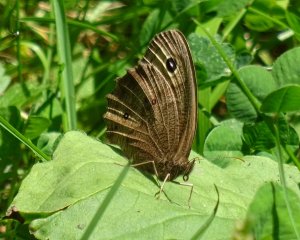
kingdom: Animalia
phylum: Arthropoda
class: Insecta
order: Lepidoptera
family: Nymphalidae
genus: Cercyonis
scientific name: Cercyonis pegala
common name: Common Wood-Nymph
